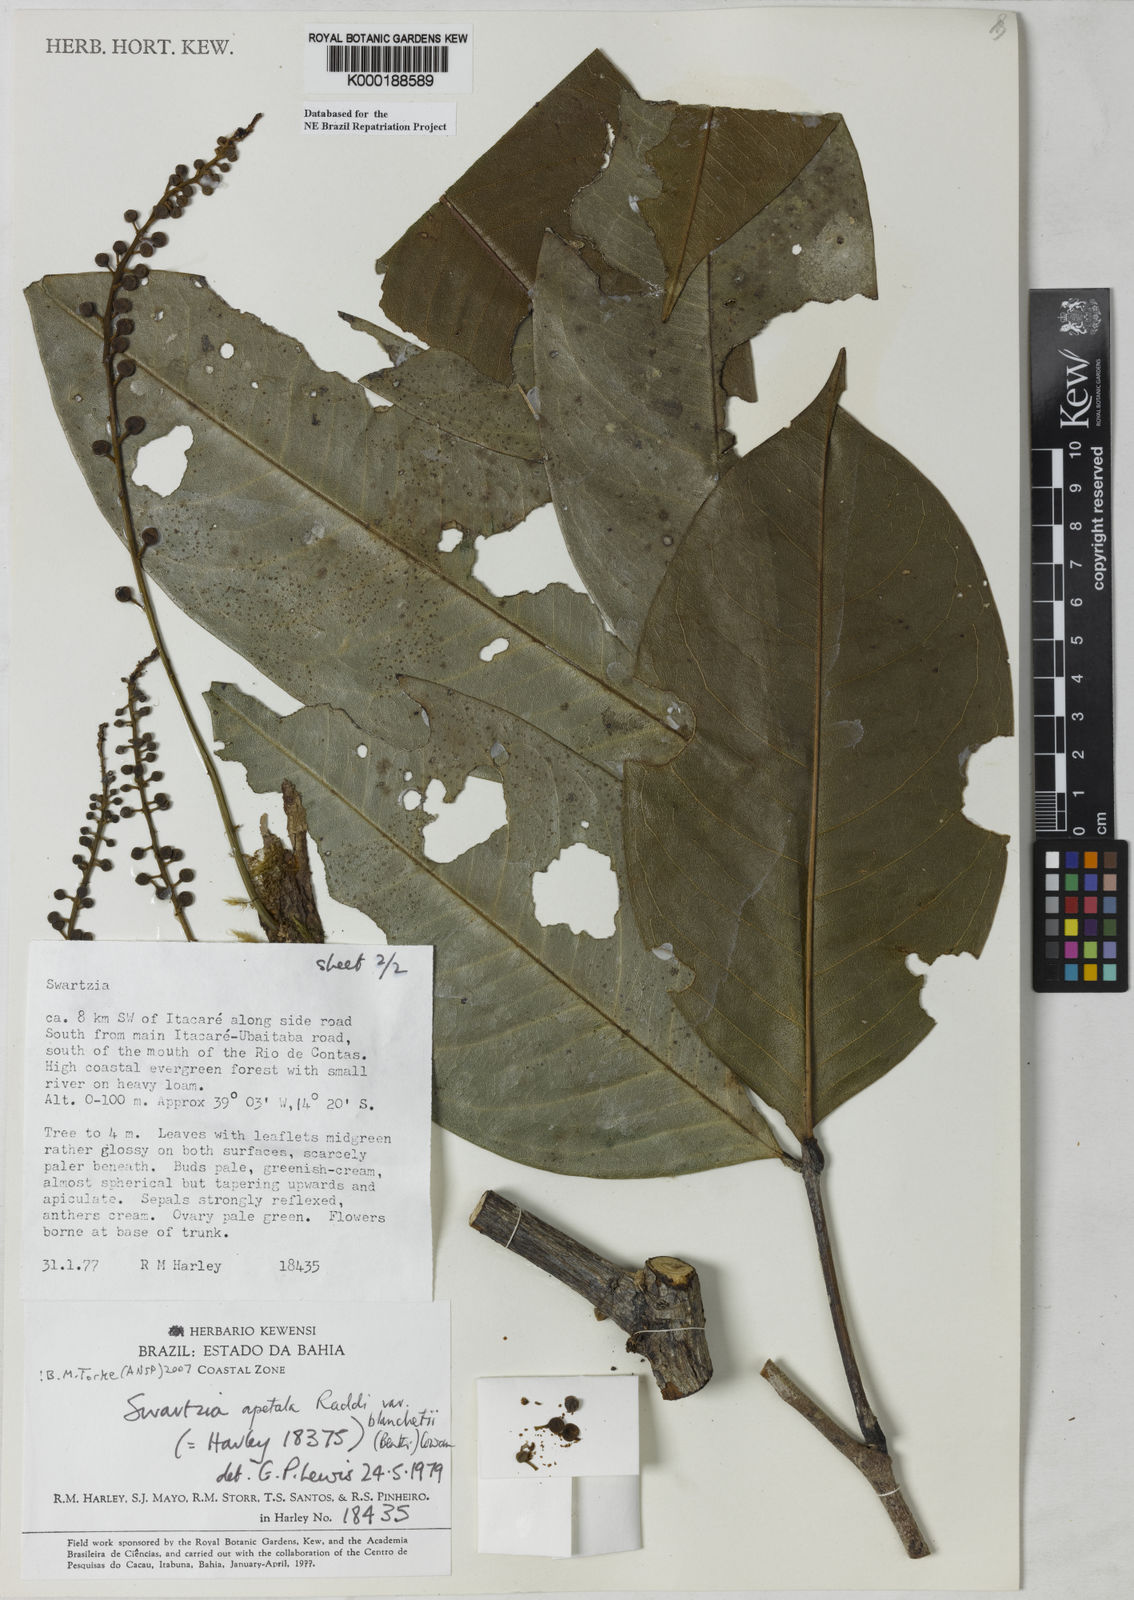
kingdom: Plantae
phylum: Tracheophyta
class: Magnoliopsida
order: Fabales
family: Fabaceae
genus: Swartzia
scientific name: Swartzia apetala
